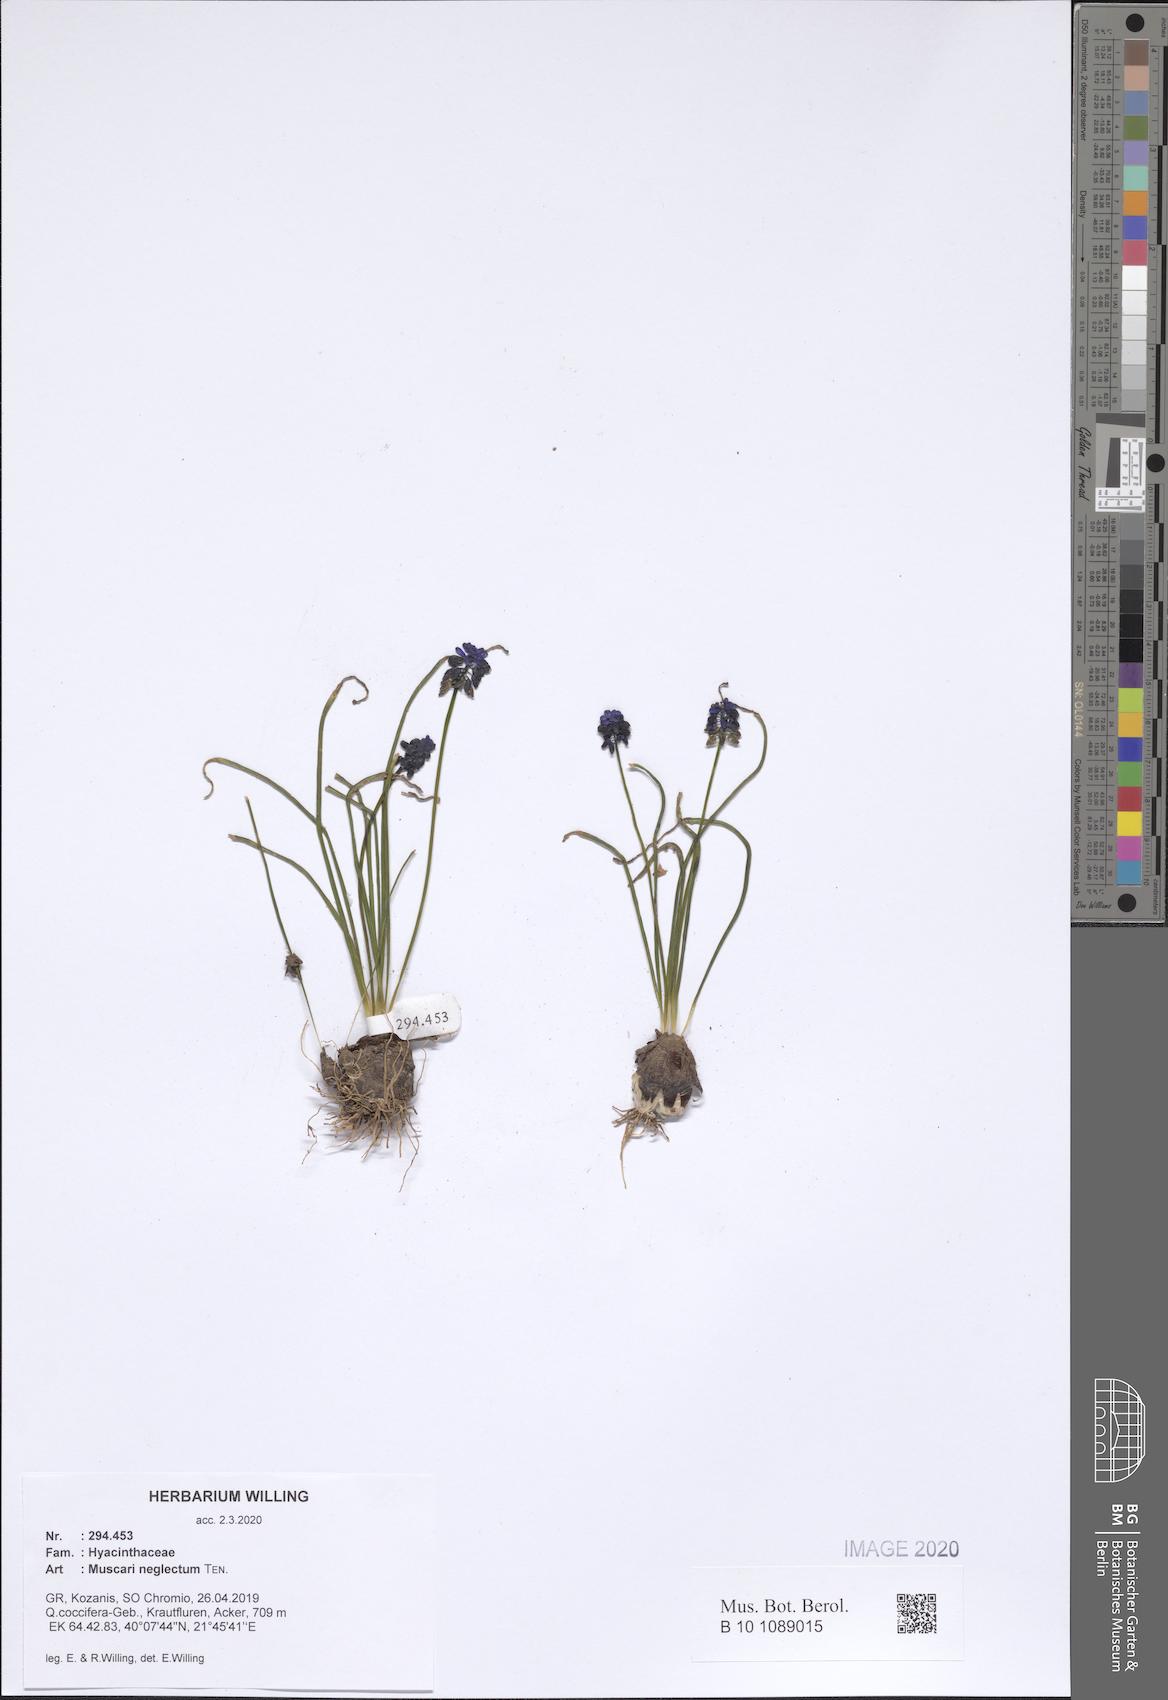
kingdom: Plantae
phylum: Tracheophyta
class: Liliopsida
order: Asparagales
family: Asparagaceae
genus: Muscari
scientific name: Muscari neglectum
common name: Grape-hyacinth
